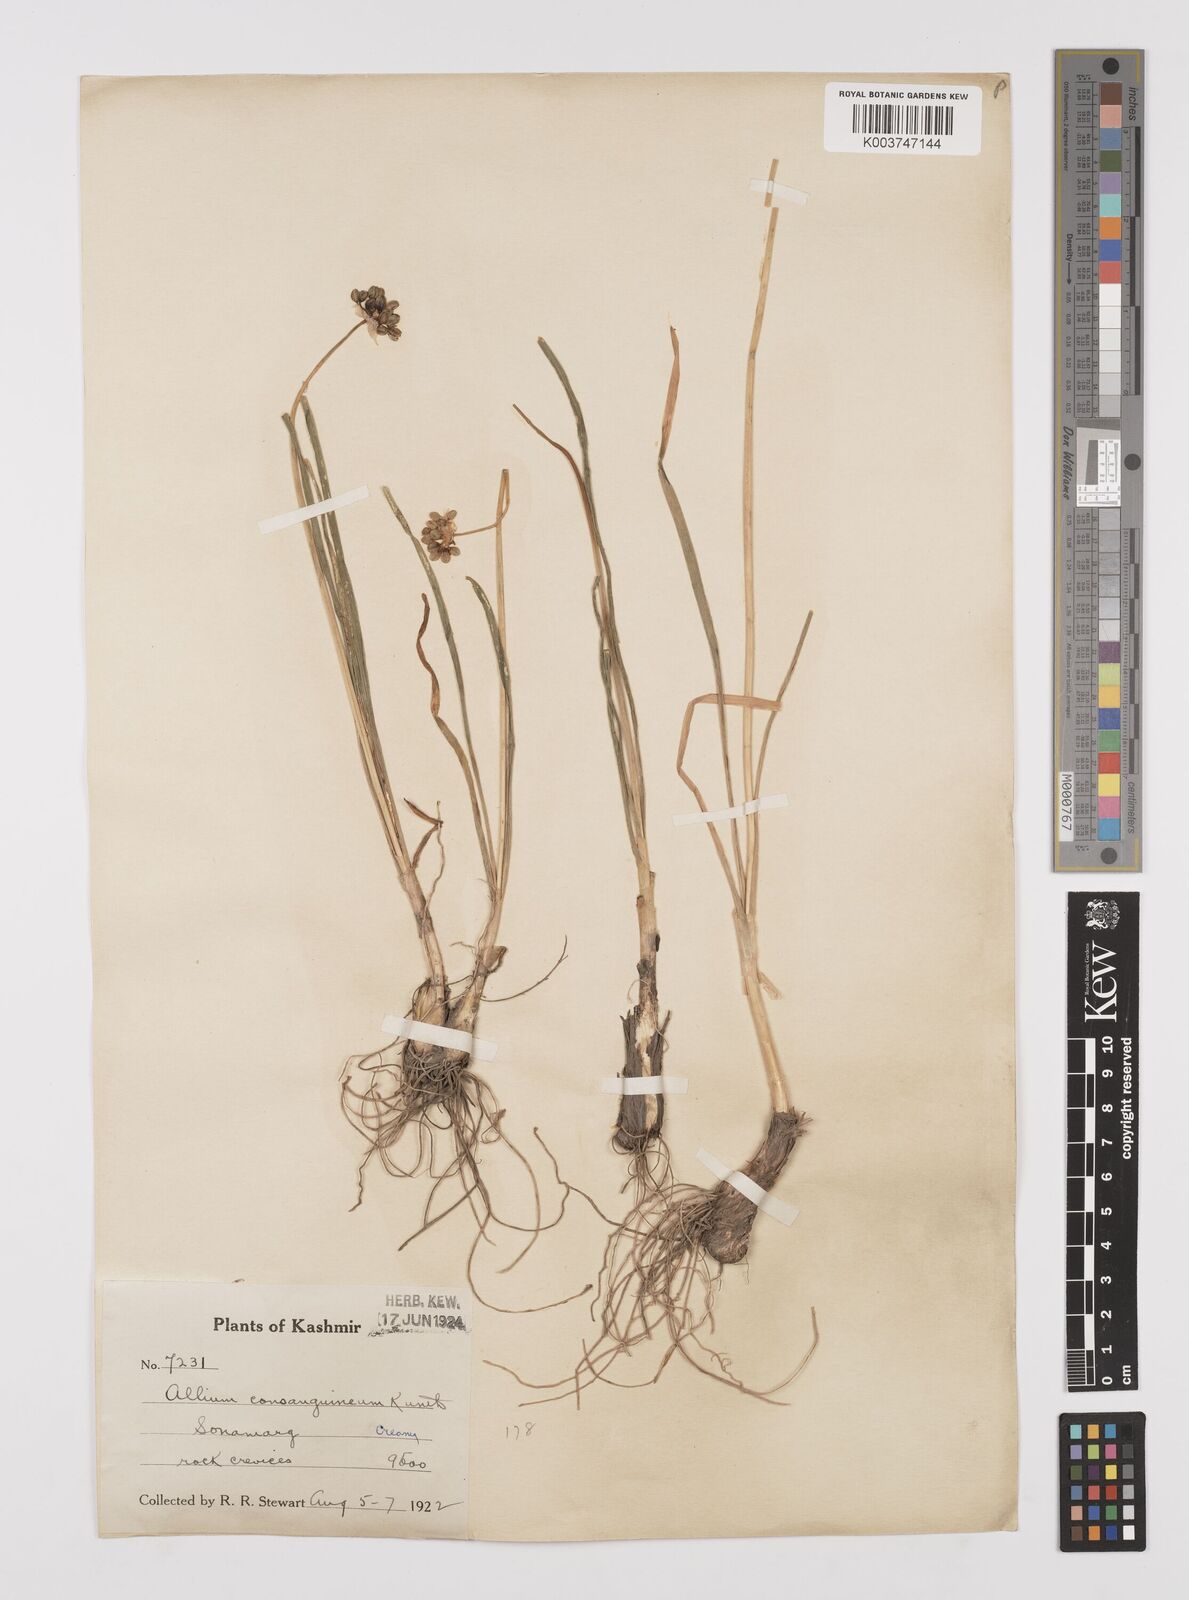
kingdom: Plantae
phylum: Tracheophyta
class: Liliopsida
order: Asparagales
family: Amaryllidaceae
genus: Allium
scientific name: Allium consanguineum
